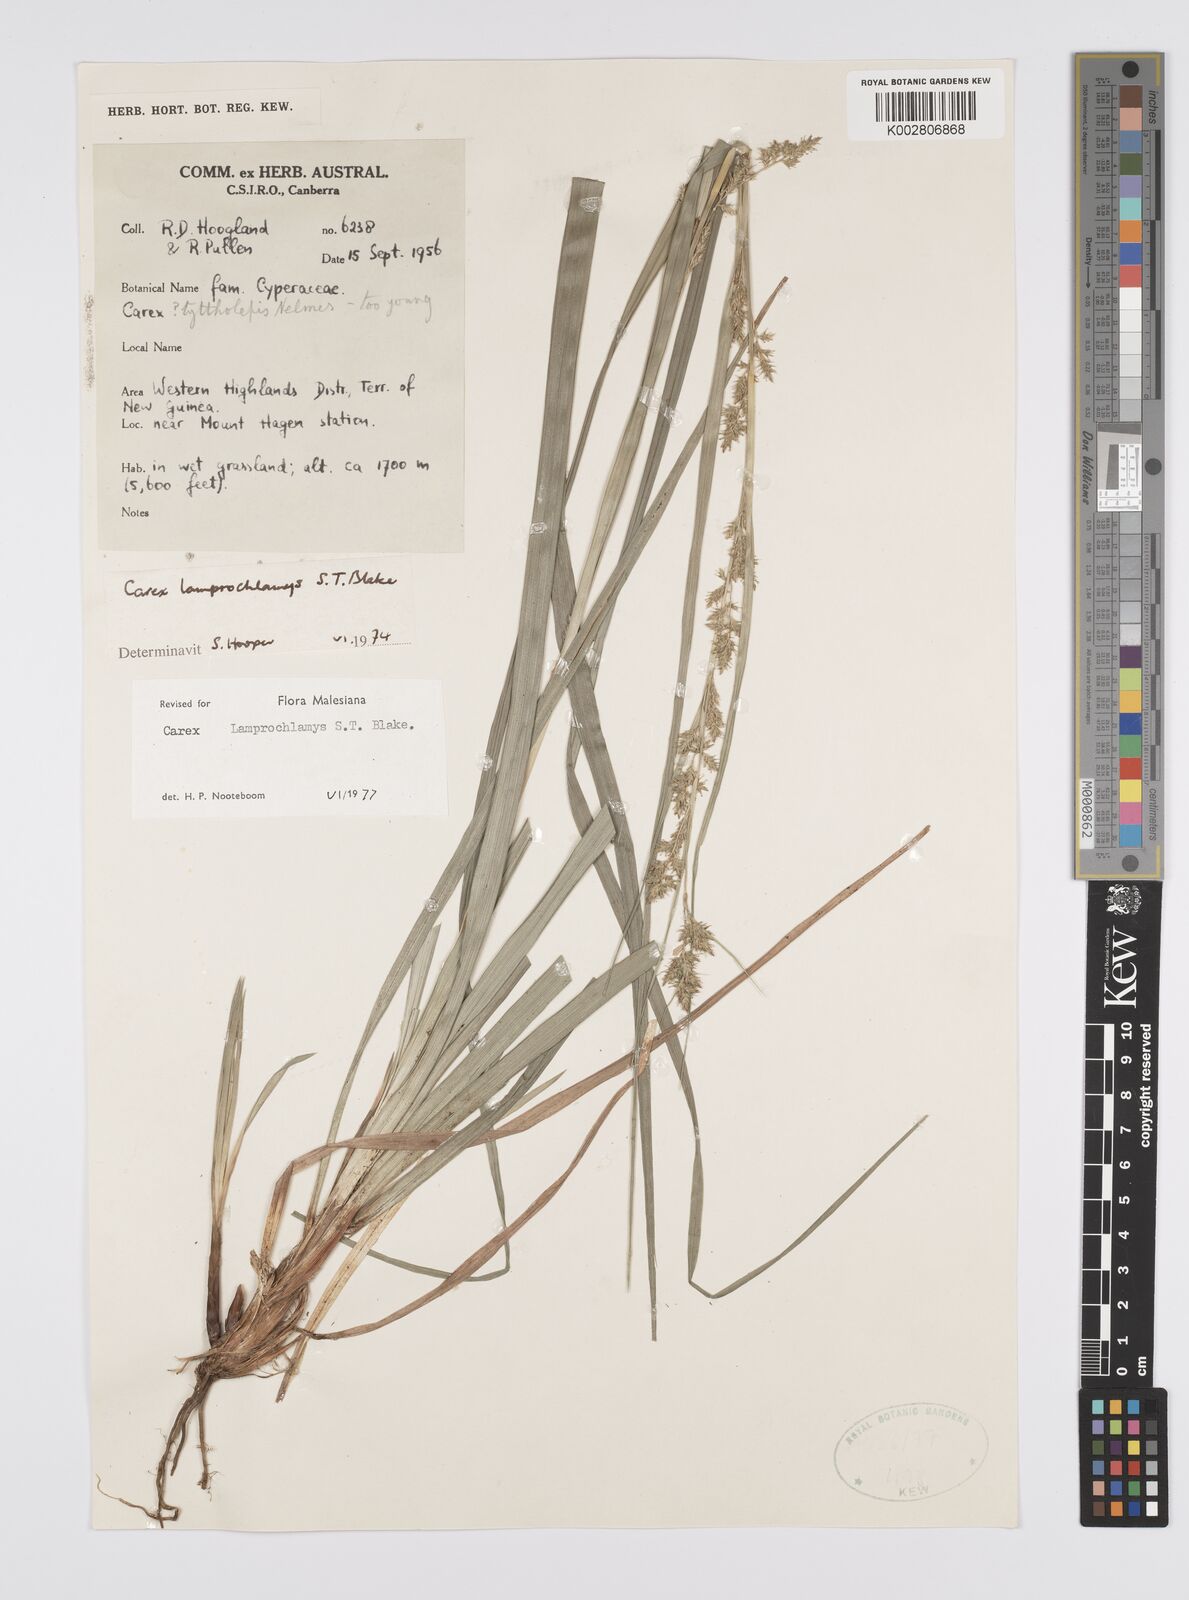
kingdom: Plantae
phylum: Tracheophyta
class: Liliopsida
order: Poales
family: Cyperaceae
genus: Carex
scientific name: Carex lamprochlamys
